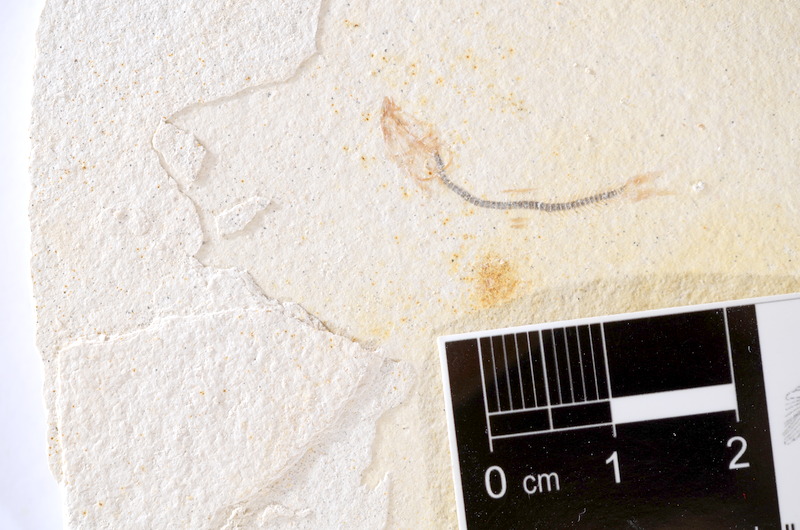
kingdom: Animalia
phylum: Chordata
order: Salmoniformes
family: Orthogonikleithridae
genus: Orthogonikleithrus
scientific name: Orthogonikleithrus hoelli
